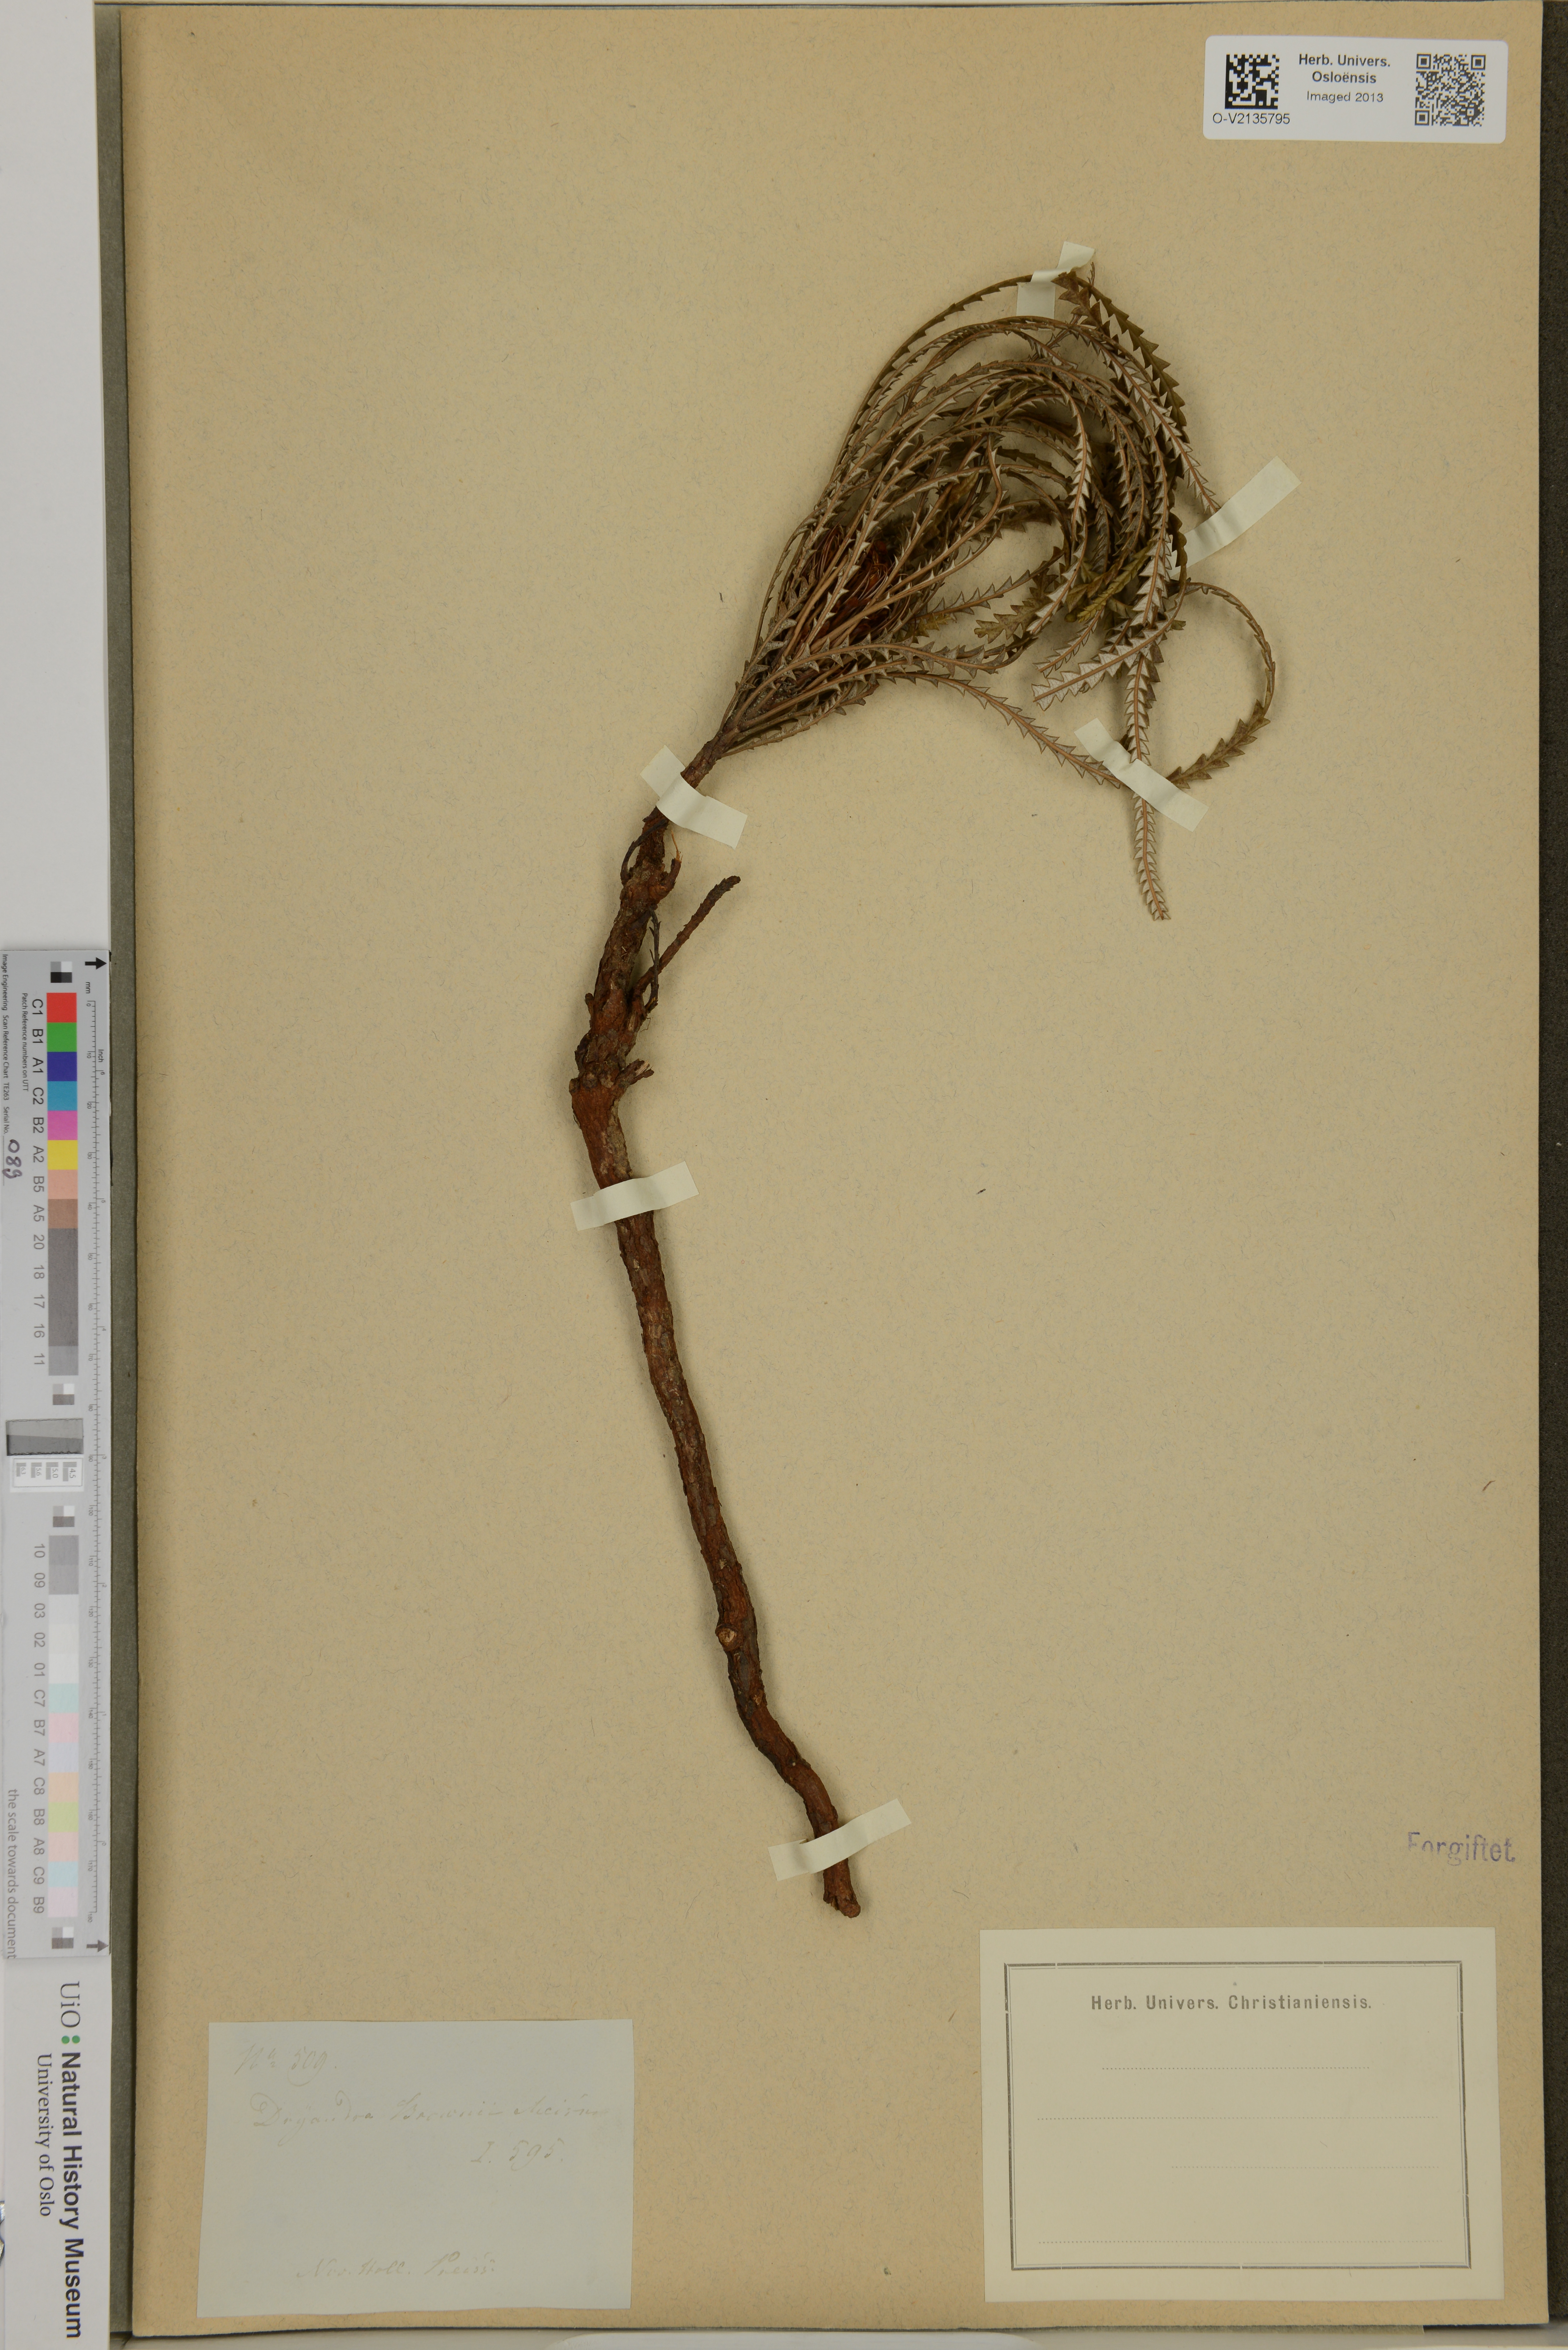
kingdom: Plantae
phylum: Tracheophyta
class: Magnoliopsida
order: Proteales
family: Proteaceae
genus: Banksia
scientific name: Banksia brunnea
